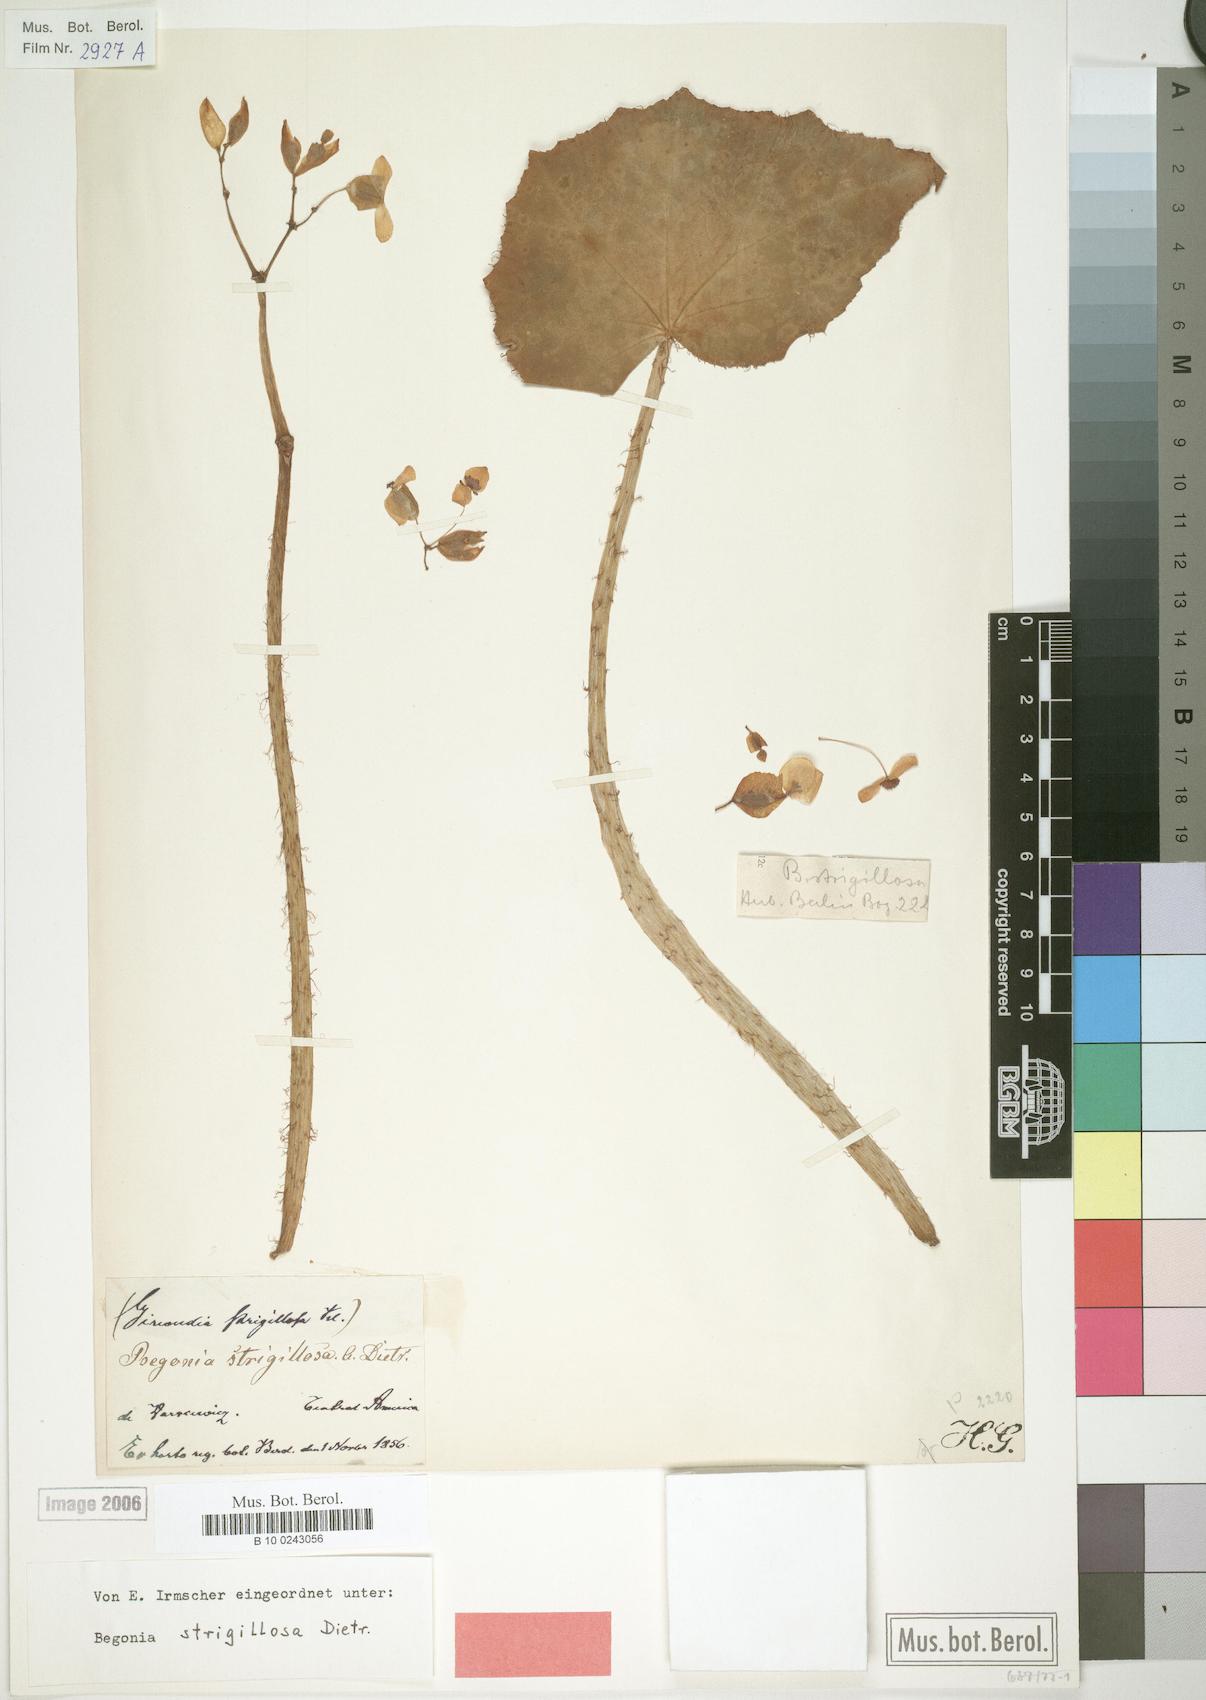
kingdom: Plantae
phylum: Tracheophyta
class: Magnoliopsida
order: Cucurbitales
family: Begoniaceae
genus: Begonia
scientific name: Begonia strigillosa
